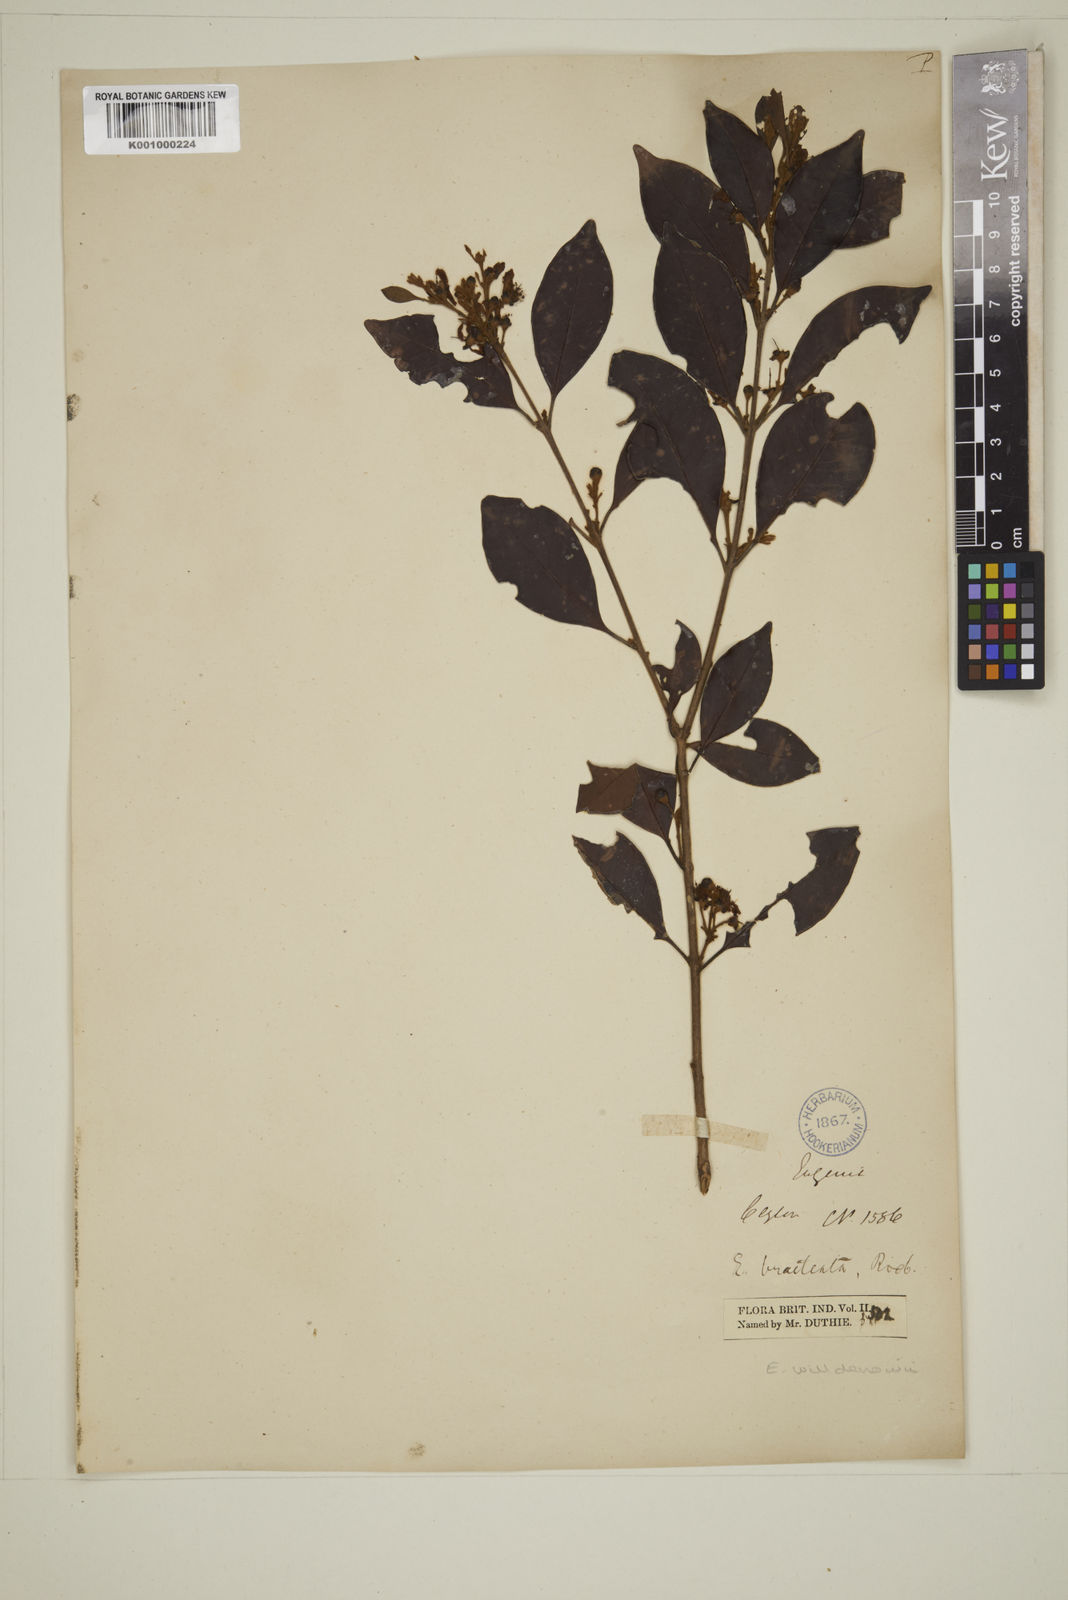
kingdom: Plantae
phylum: Tracheophyta
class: Magnoliopsida
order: Myrtales
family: Myrtaceae
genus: Eugenia
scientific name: Eugenia pseudopsidium
